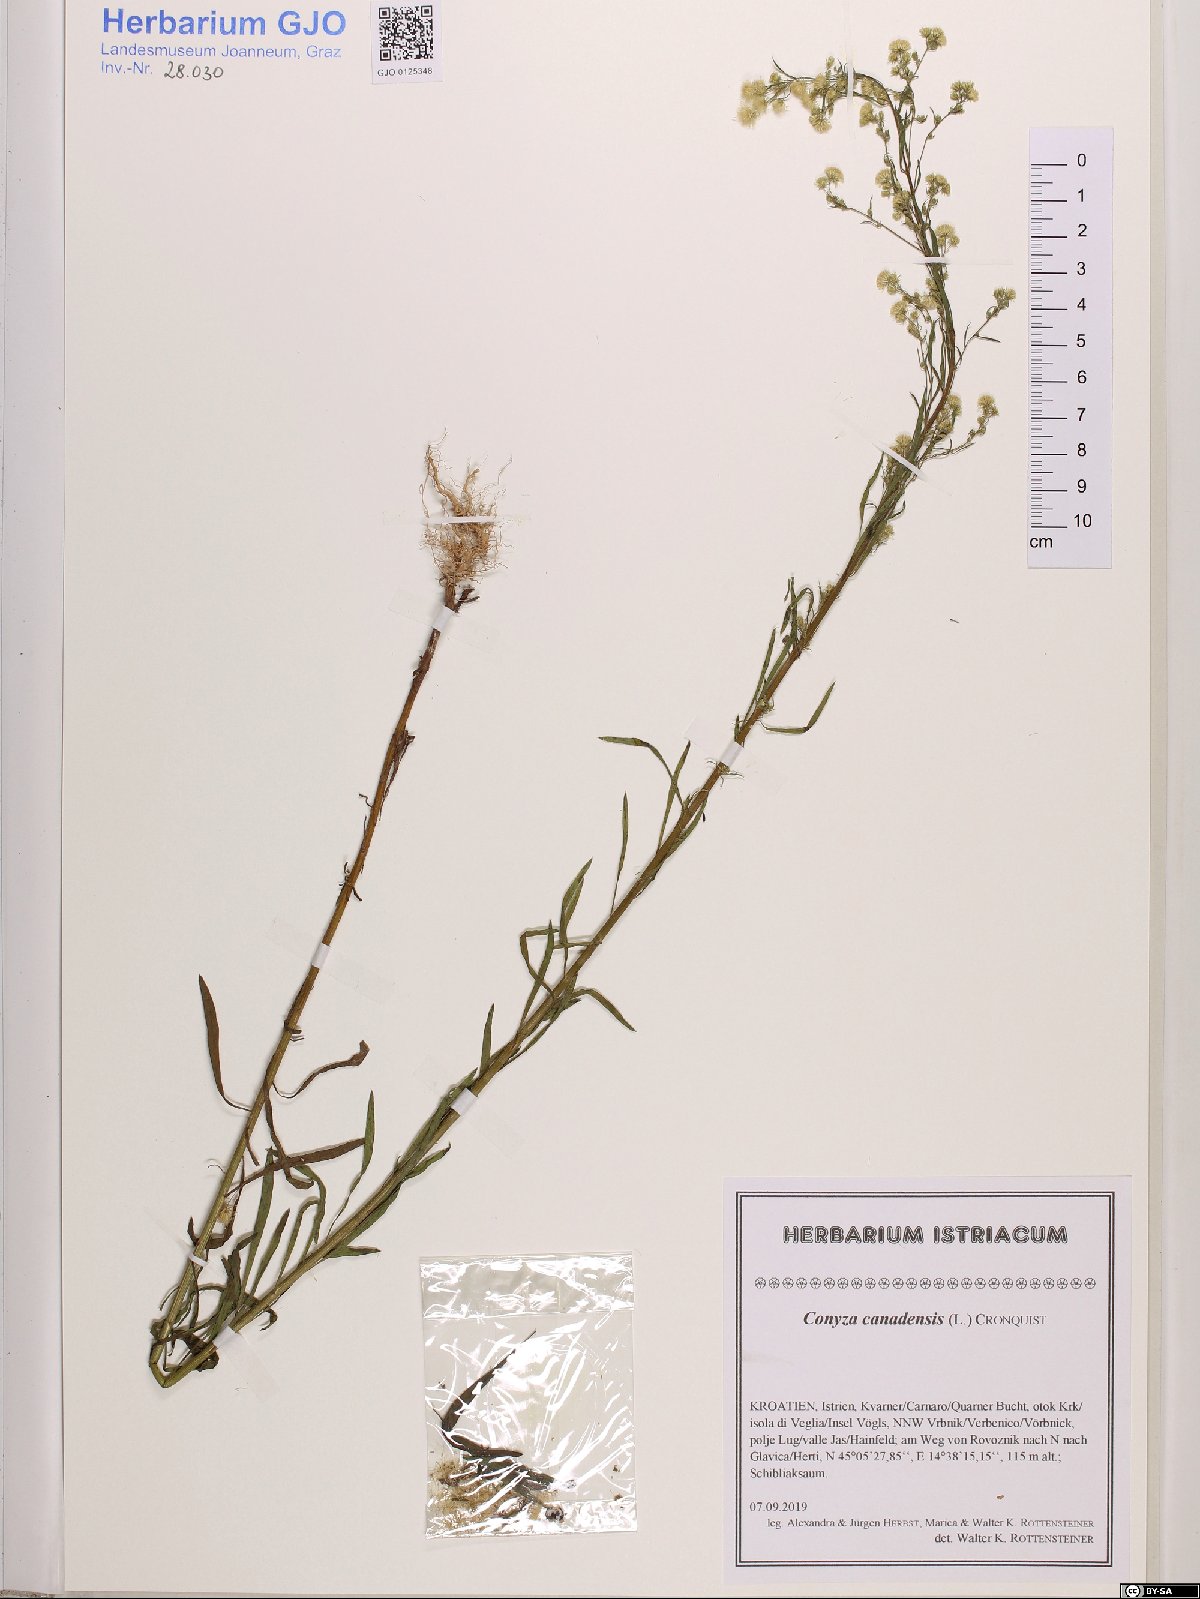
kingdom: Plantae
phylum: Tracheophyta
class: Magnoliopsida
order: Asterales
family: Asteraceae
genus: Erigeron
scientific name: Erigeron canadensis
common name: Canadian fleabane
